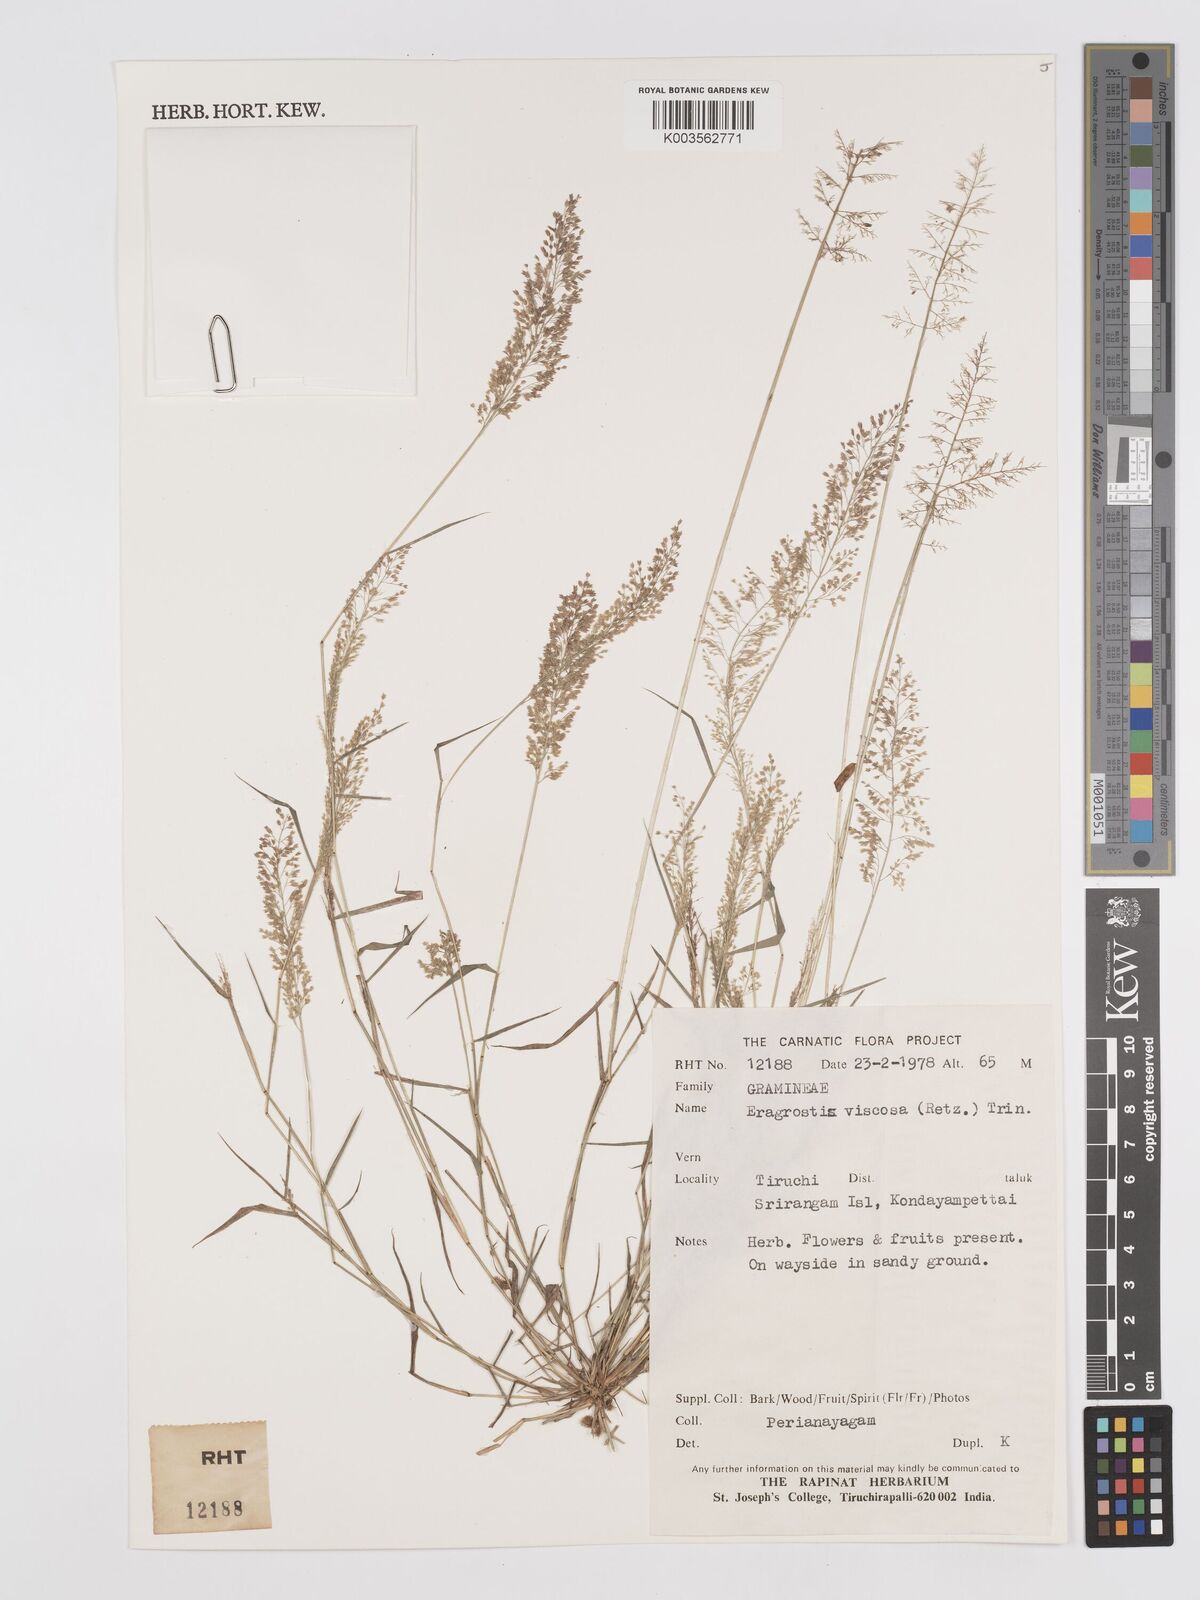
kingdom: Plantae
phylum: Tracheophyta
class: Liliopsida
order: Poales
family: Poaceae
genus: Eragrostis
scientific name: Eragrostis viscosa
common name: Sticky love grass
